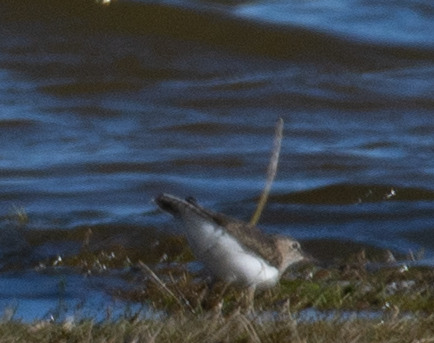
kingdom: Animalia
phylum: Chordata
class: Aves
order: Charadriiformes
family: Scolopacidae
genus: Actitis
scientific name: Actitis hypoleucos
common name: Mudderklire
